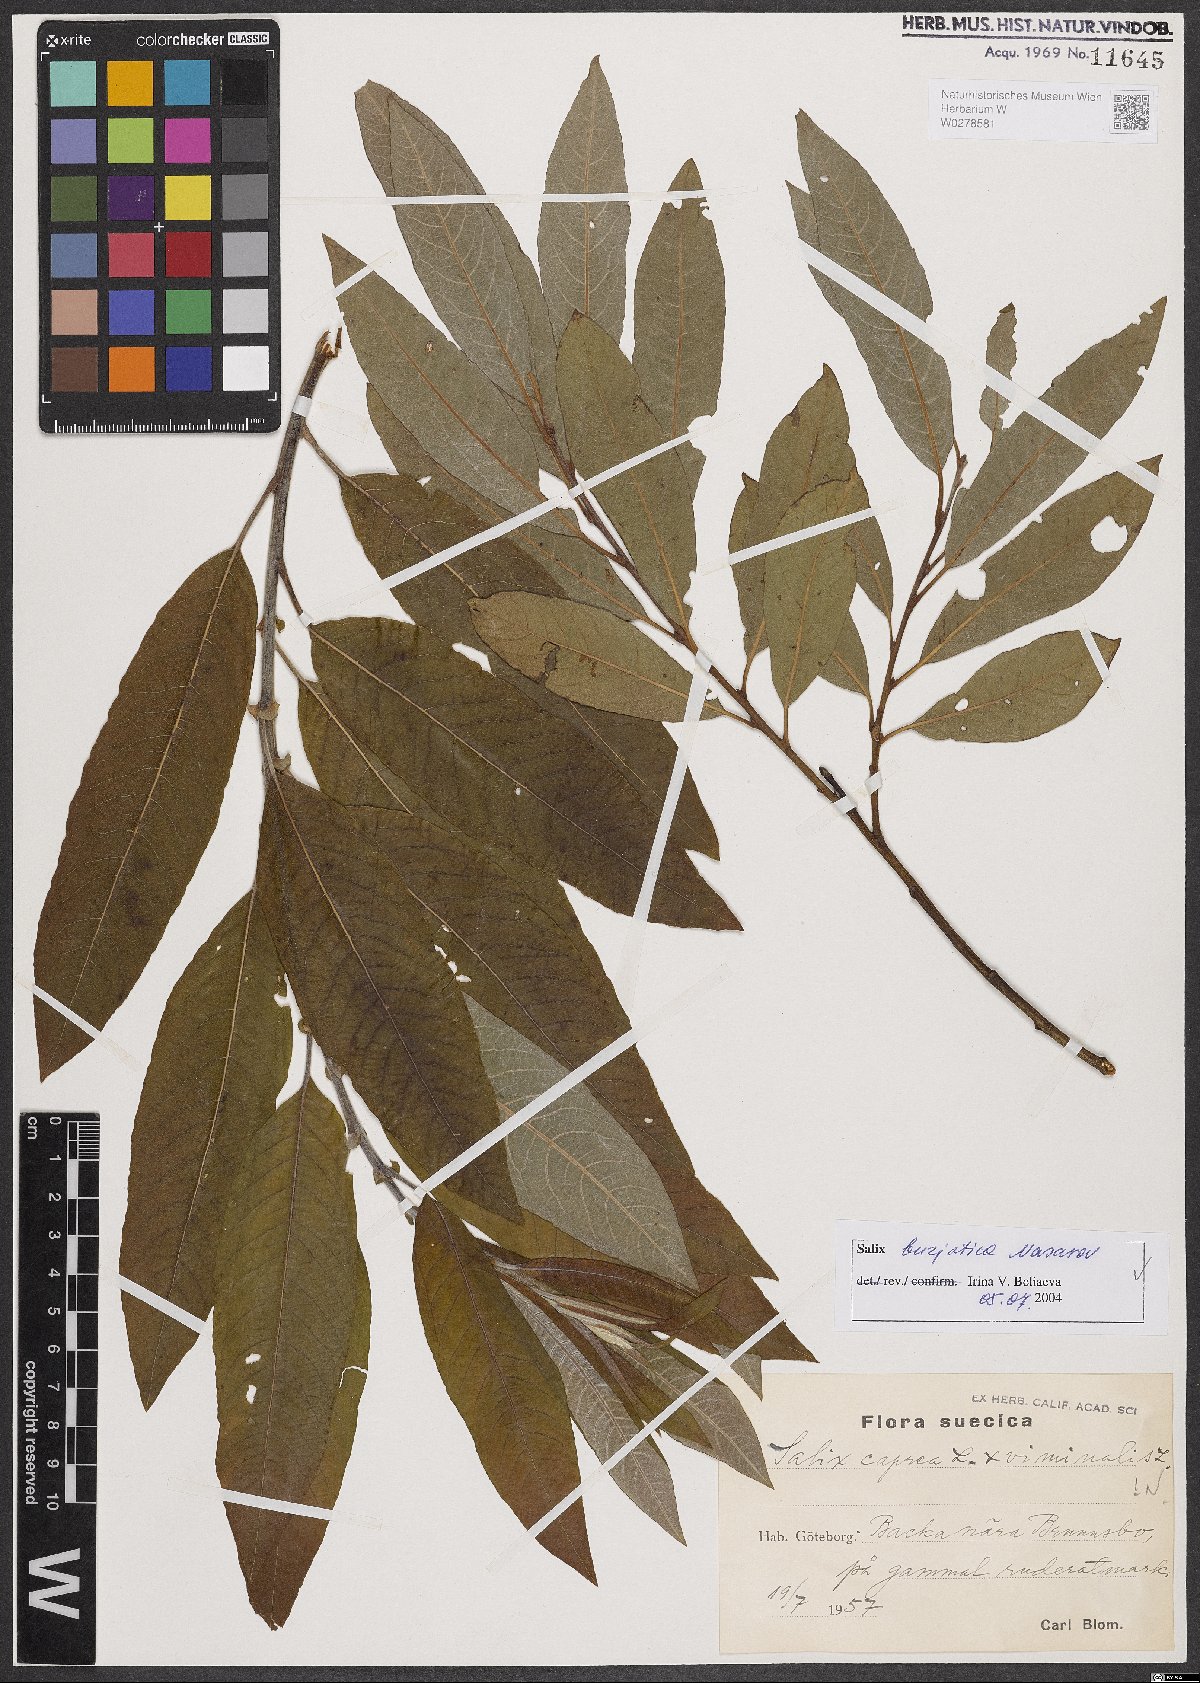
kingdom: Plantae
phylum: Tracheophyta
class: Magnoliopsida
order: Malpighiales
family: Salicaceae
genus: Salix
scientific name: Salix gmelinii
